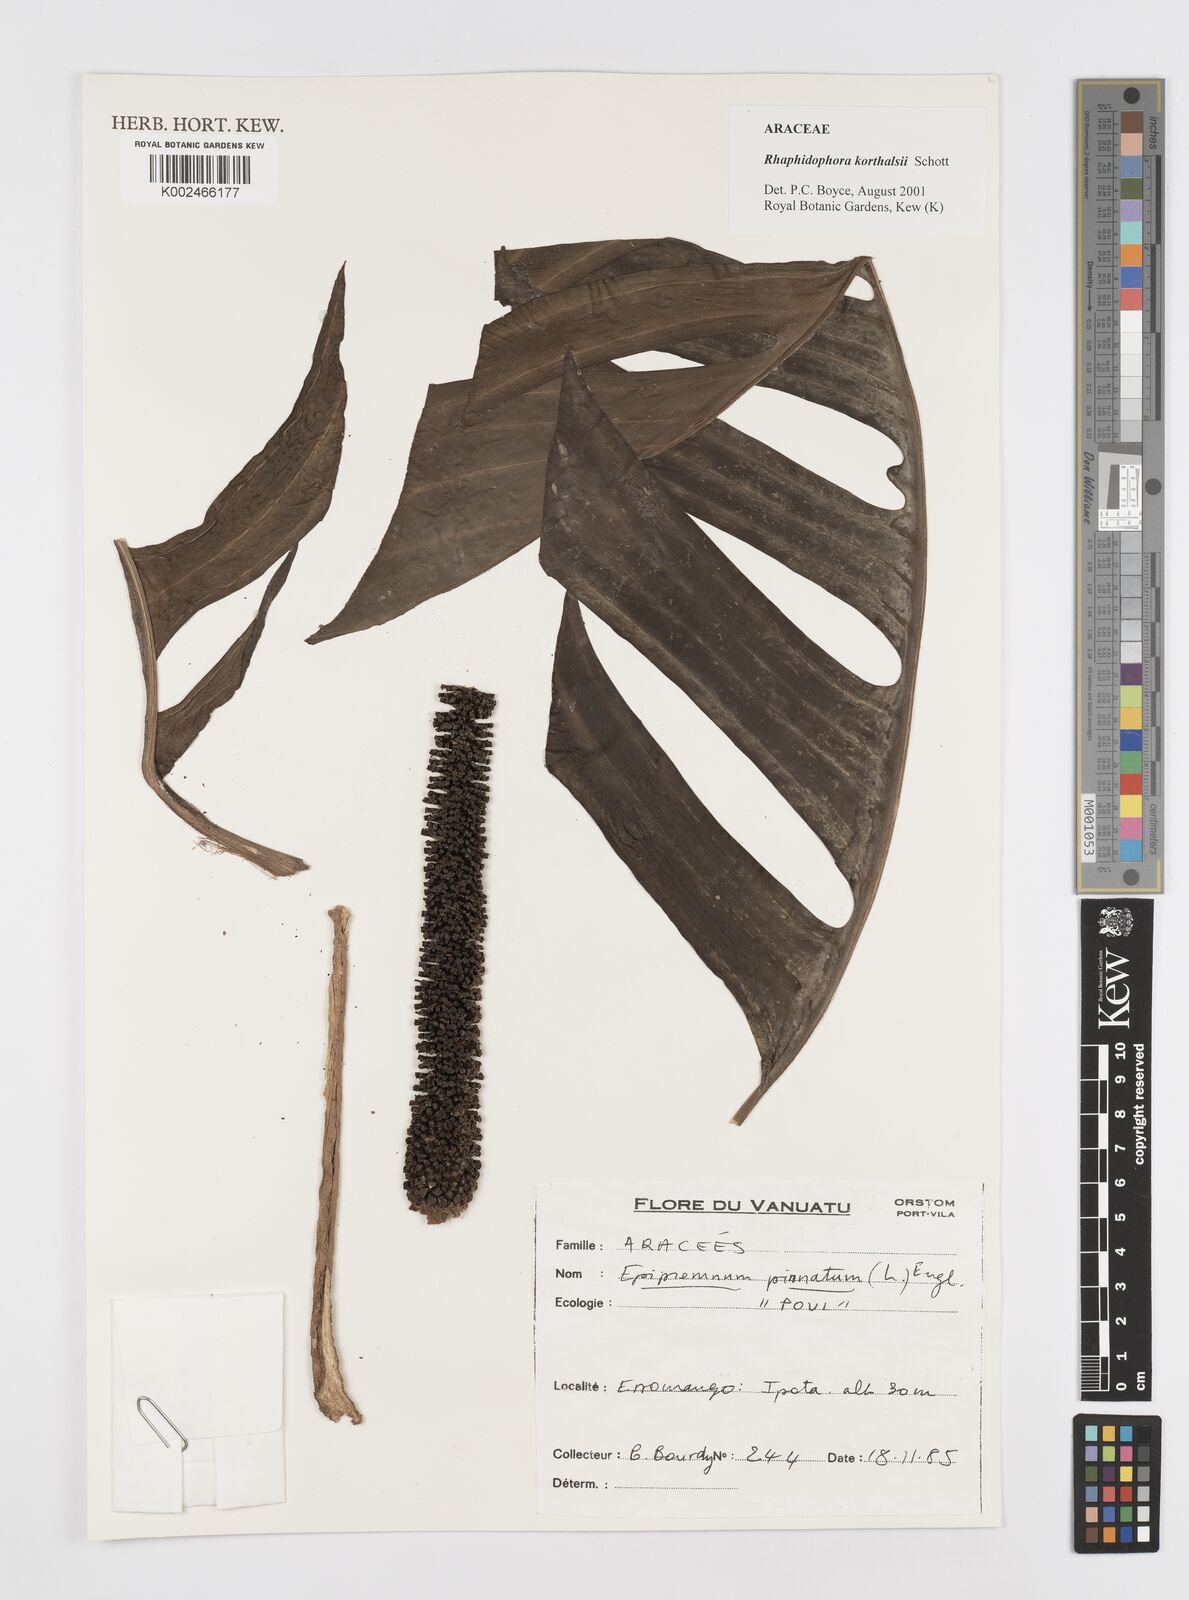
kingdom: Plantae
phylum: Tracheophyta
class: Liliopsida
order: Alismatales
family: Araceae
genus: Rhaphidophora
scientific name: Rhaphidophora korthalsii
